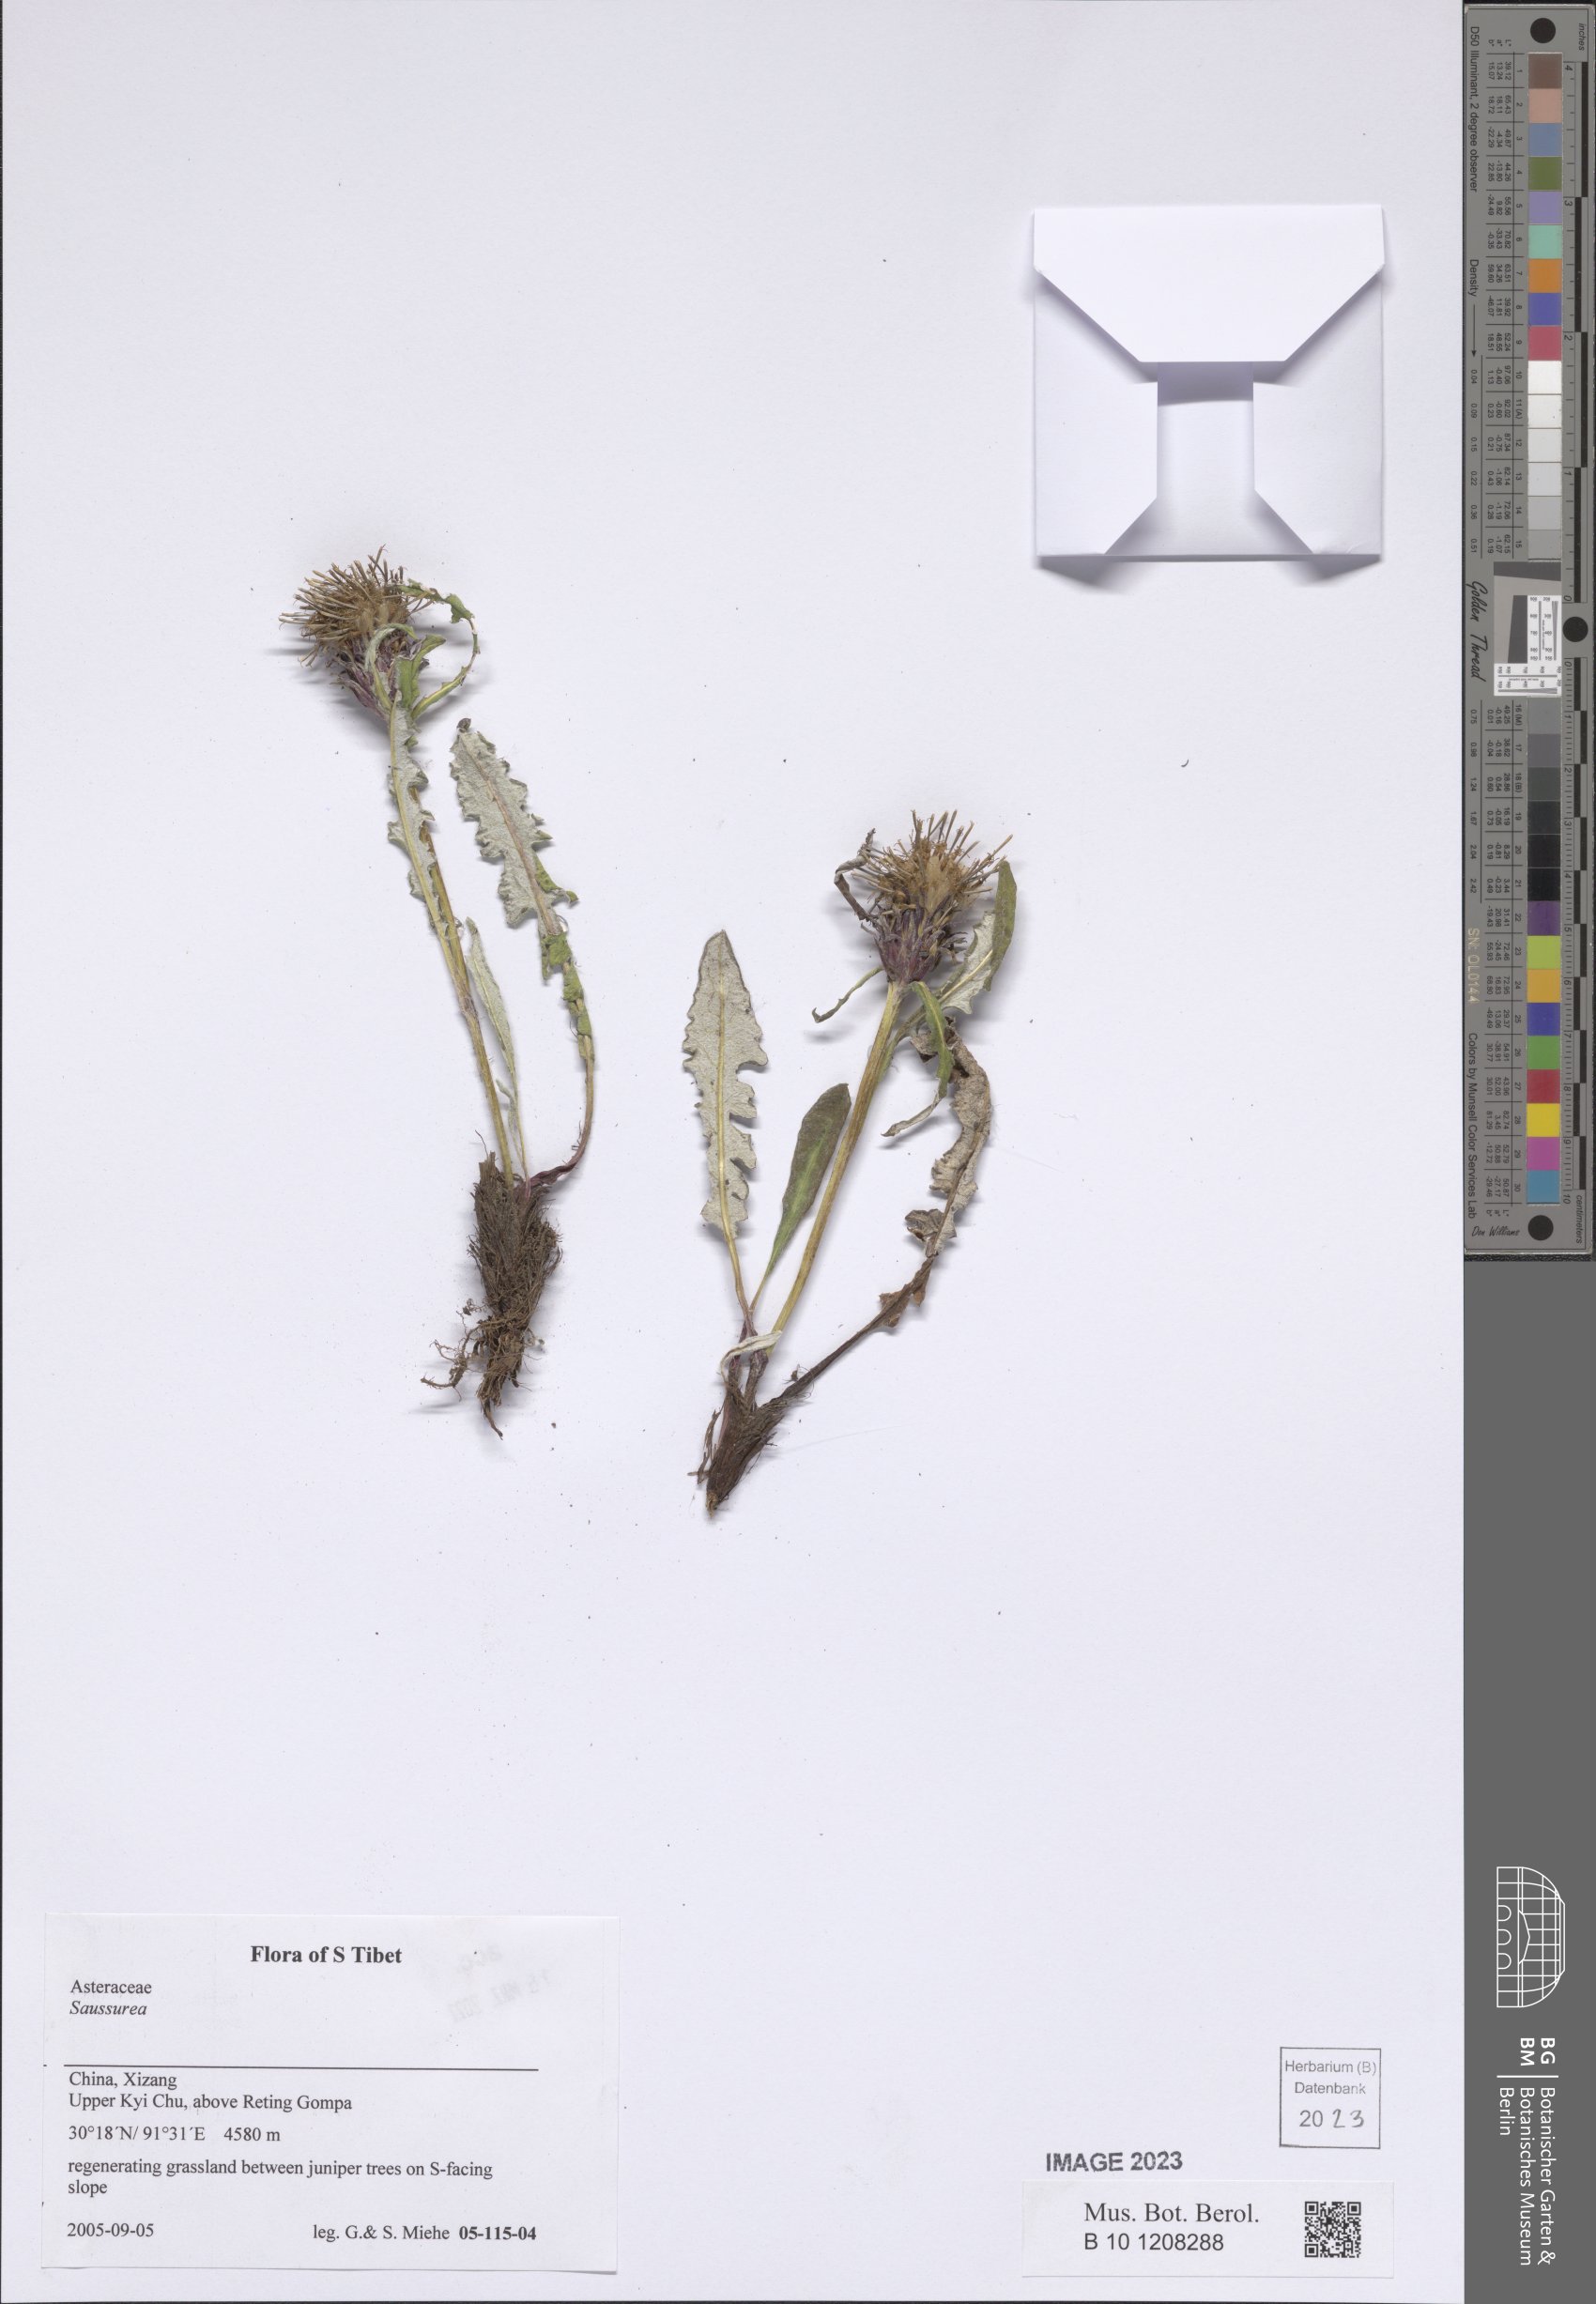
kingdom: Plantae
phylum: Tracheophyta
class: Magnoliopsida
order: Asterales
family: Asteraceae
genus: Saussurea
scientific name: Saussurea
